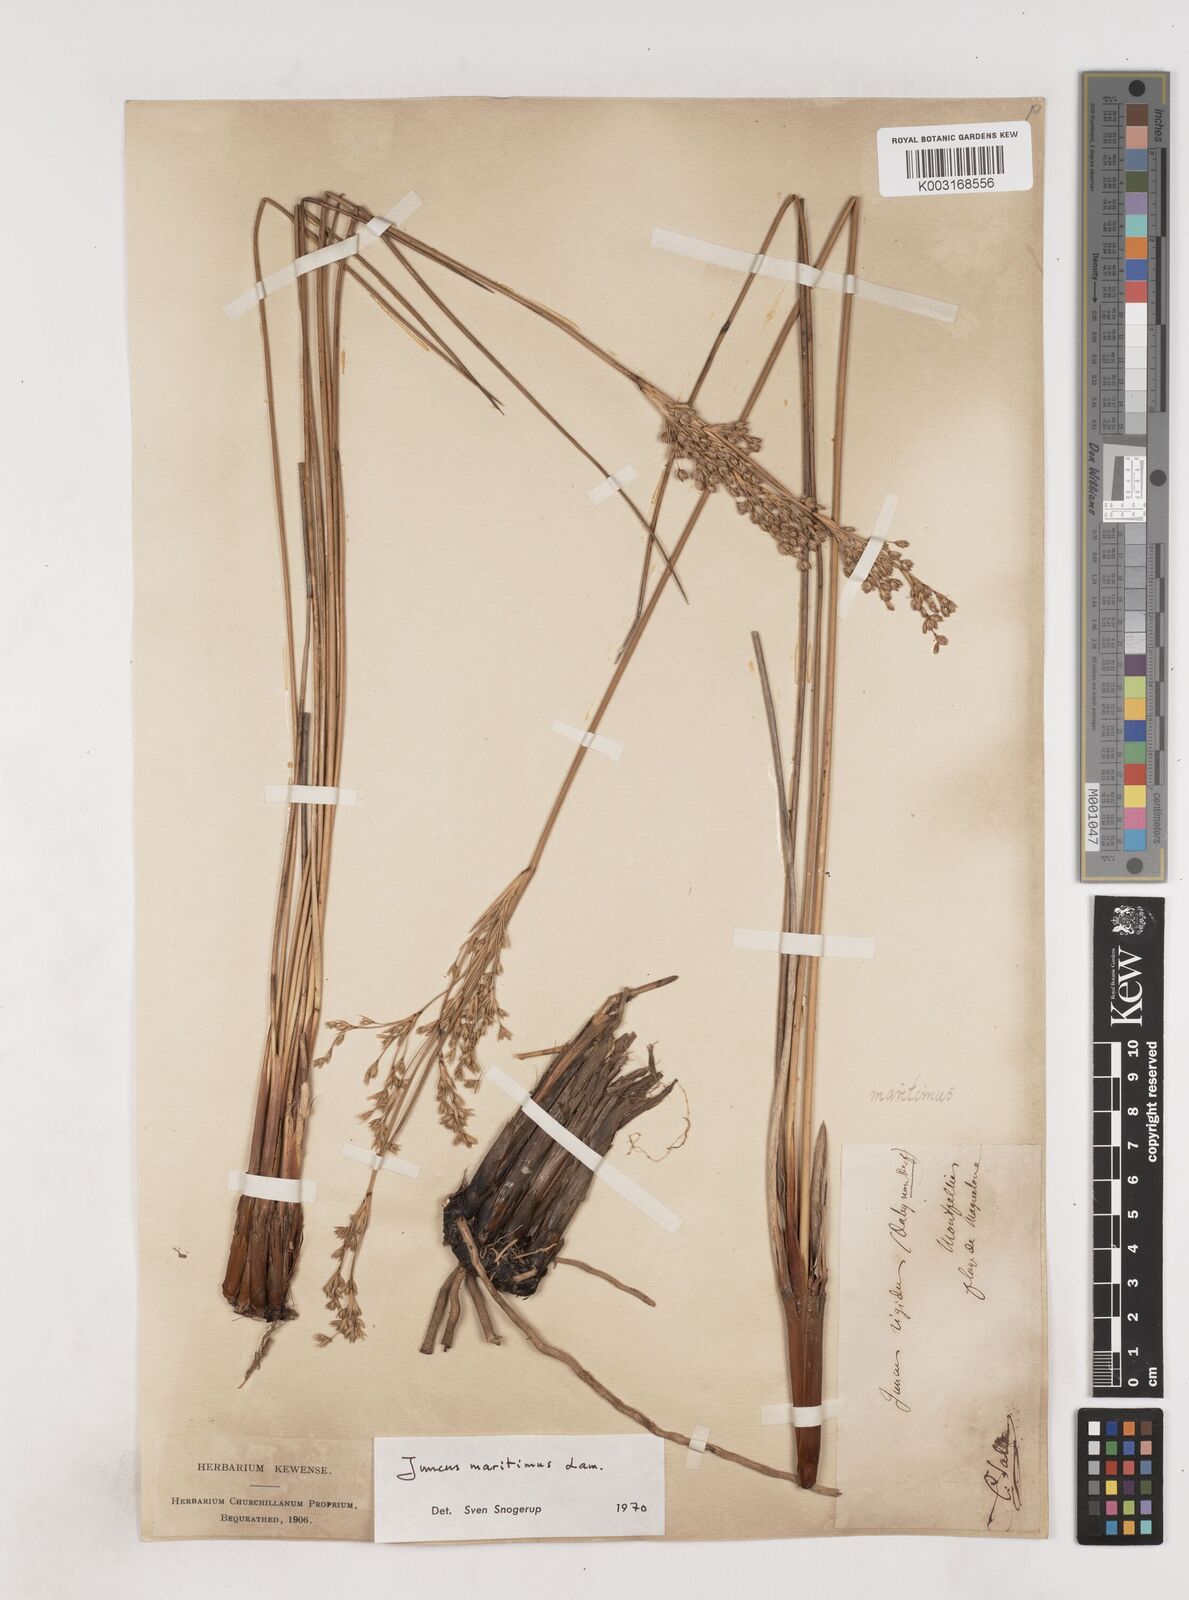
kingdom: Plantae
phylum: Tracheophyta
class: Liliopsida
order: Poales
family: Juncaceae
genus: Juncus
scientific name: Juncus maritimus
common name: Sea rush
